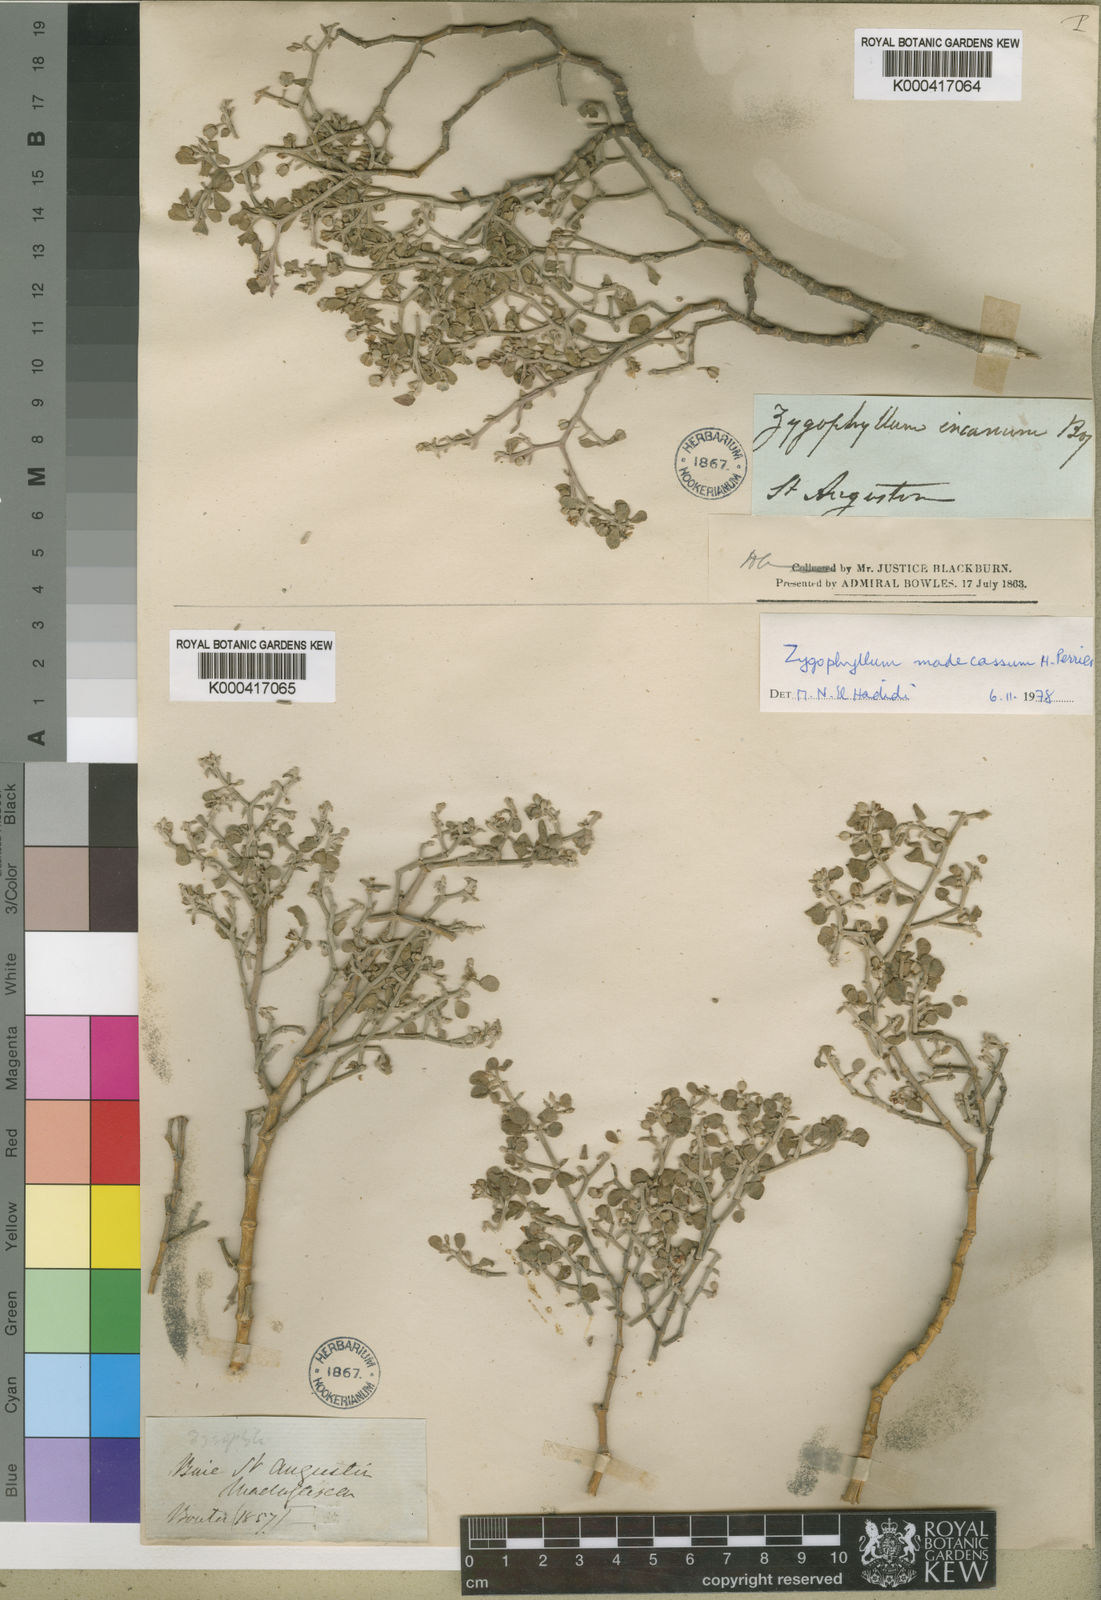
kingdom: Plantae
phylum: Tracheophyta
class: Magnoliopsida
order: Zygophyllales
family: Zygophyllaceae
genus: Tetraena
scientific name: Tetraena longistipulata
